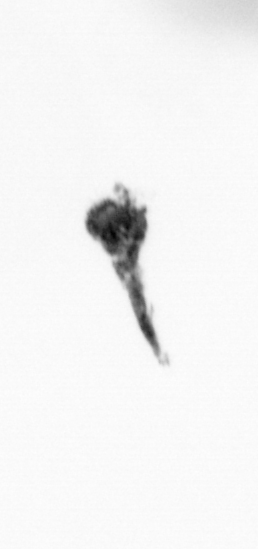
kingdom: Animalia
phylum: Arthropoda
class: Copepoda
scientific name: Copepoda
